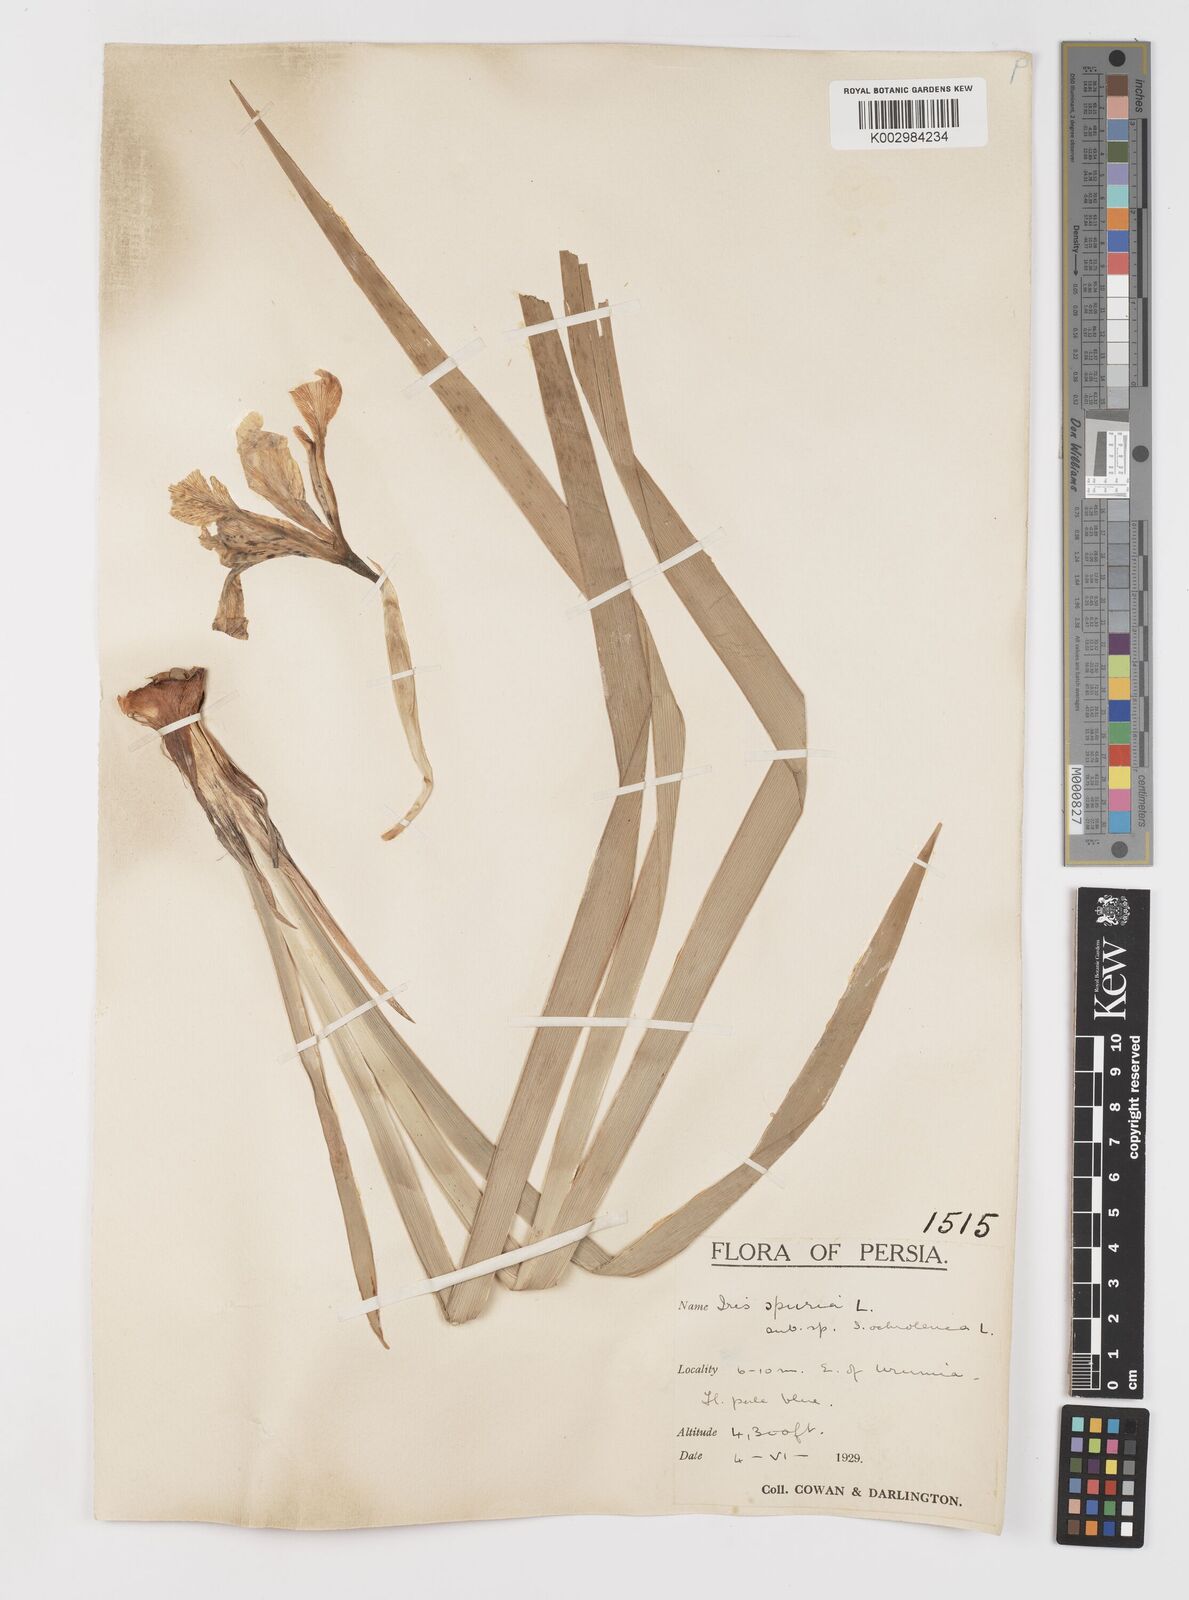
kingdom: Plantae
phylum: Tracheophyta
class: Liliopsida
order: Asparagales
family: Iridaceae
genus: Iris
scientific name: Iris spuria
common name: Blue iris
